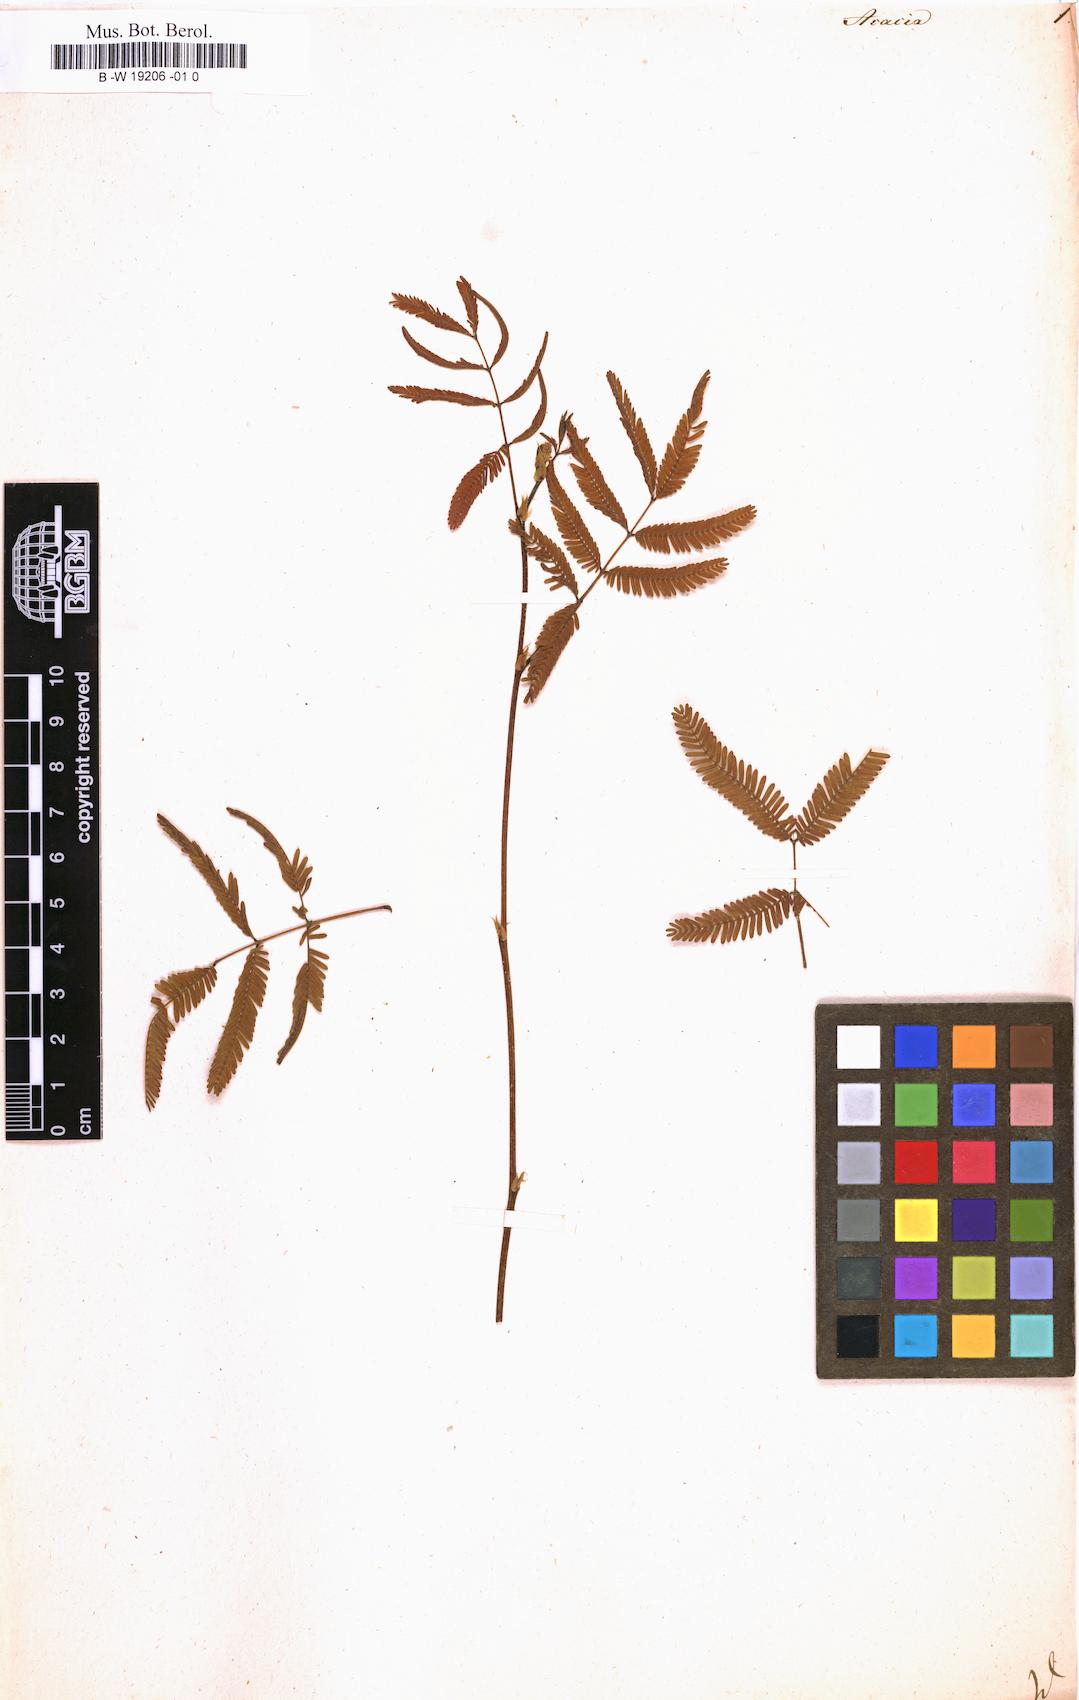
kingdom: Plantae
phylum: Tracheophyta
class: Magnoliopsida
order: Fabales
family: Fabaceae
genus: Acacia
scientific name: Acacia
